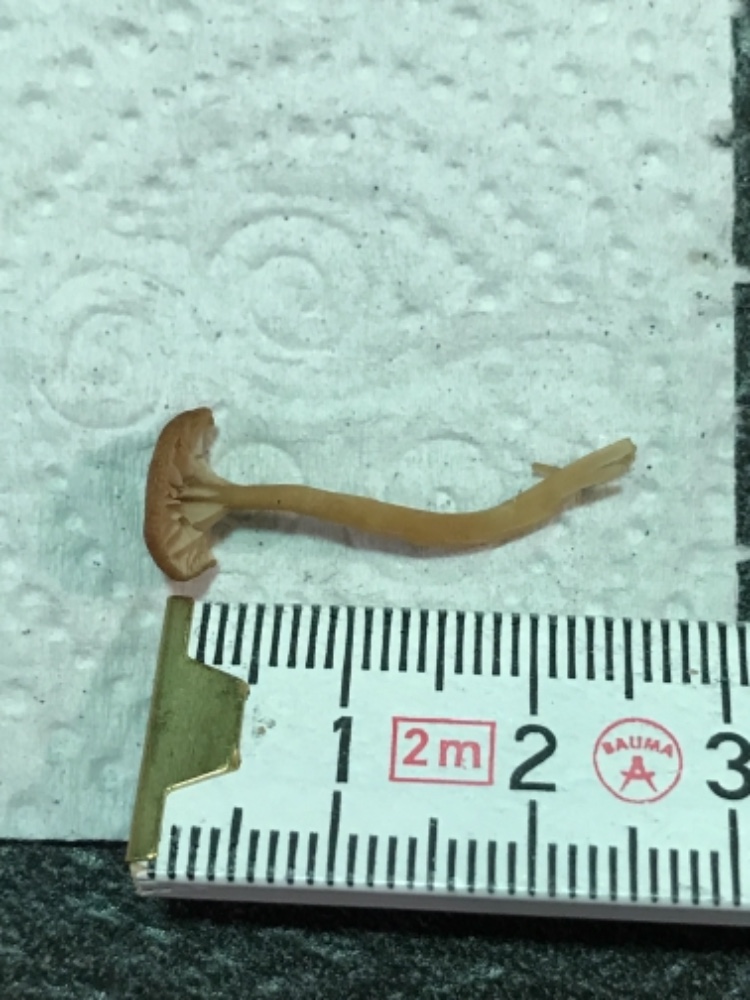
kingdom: Fungi
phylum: Basidiomycota
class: Agaricomycetes
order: Agaricales
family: Tricholomataceae
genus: Omphalina
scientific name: Omphalina pyxidata
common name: rødbrun navlehat
